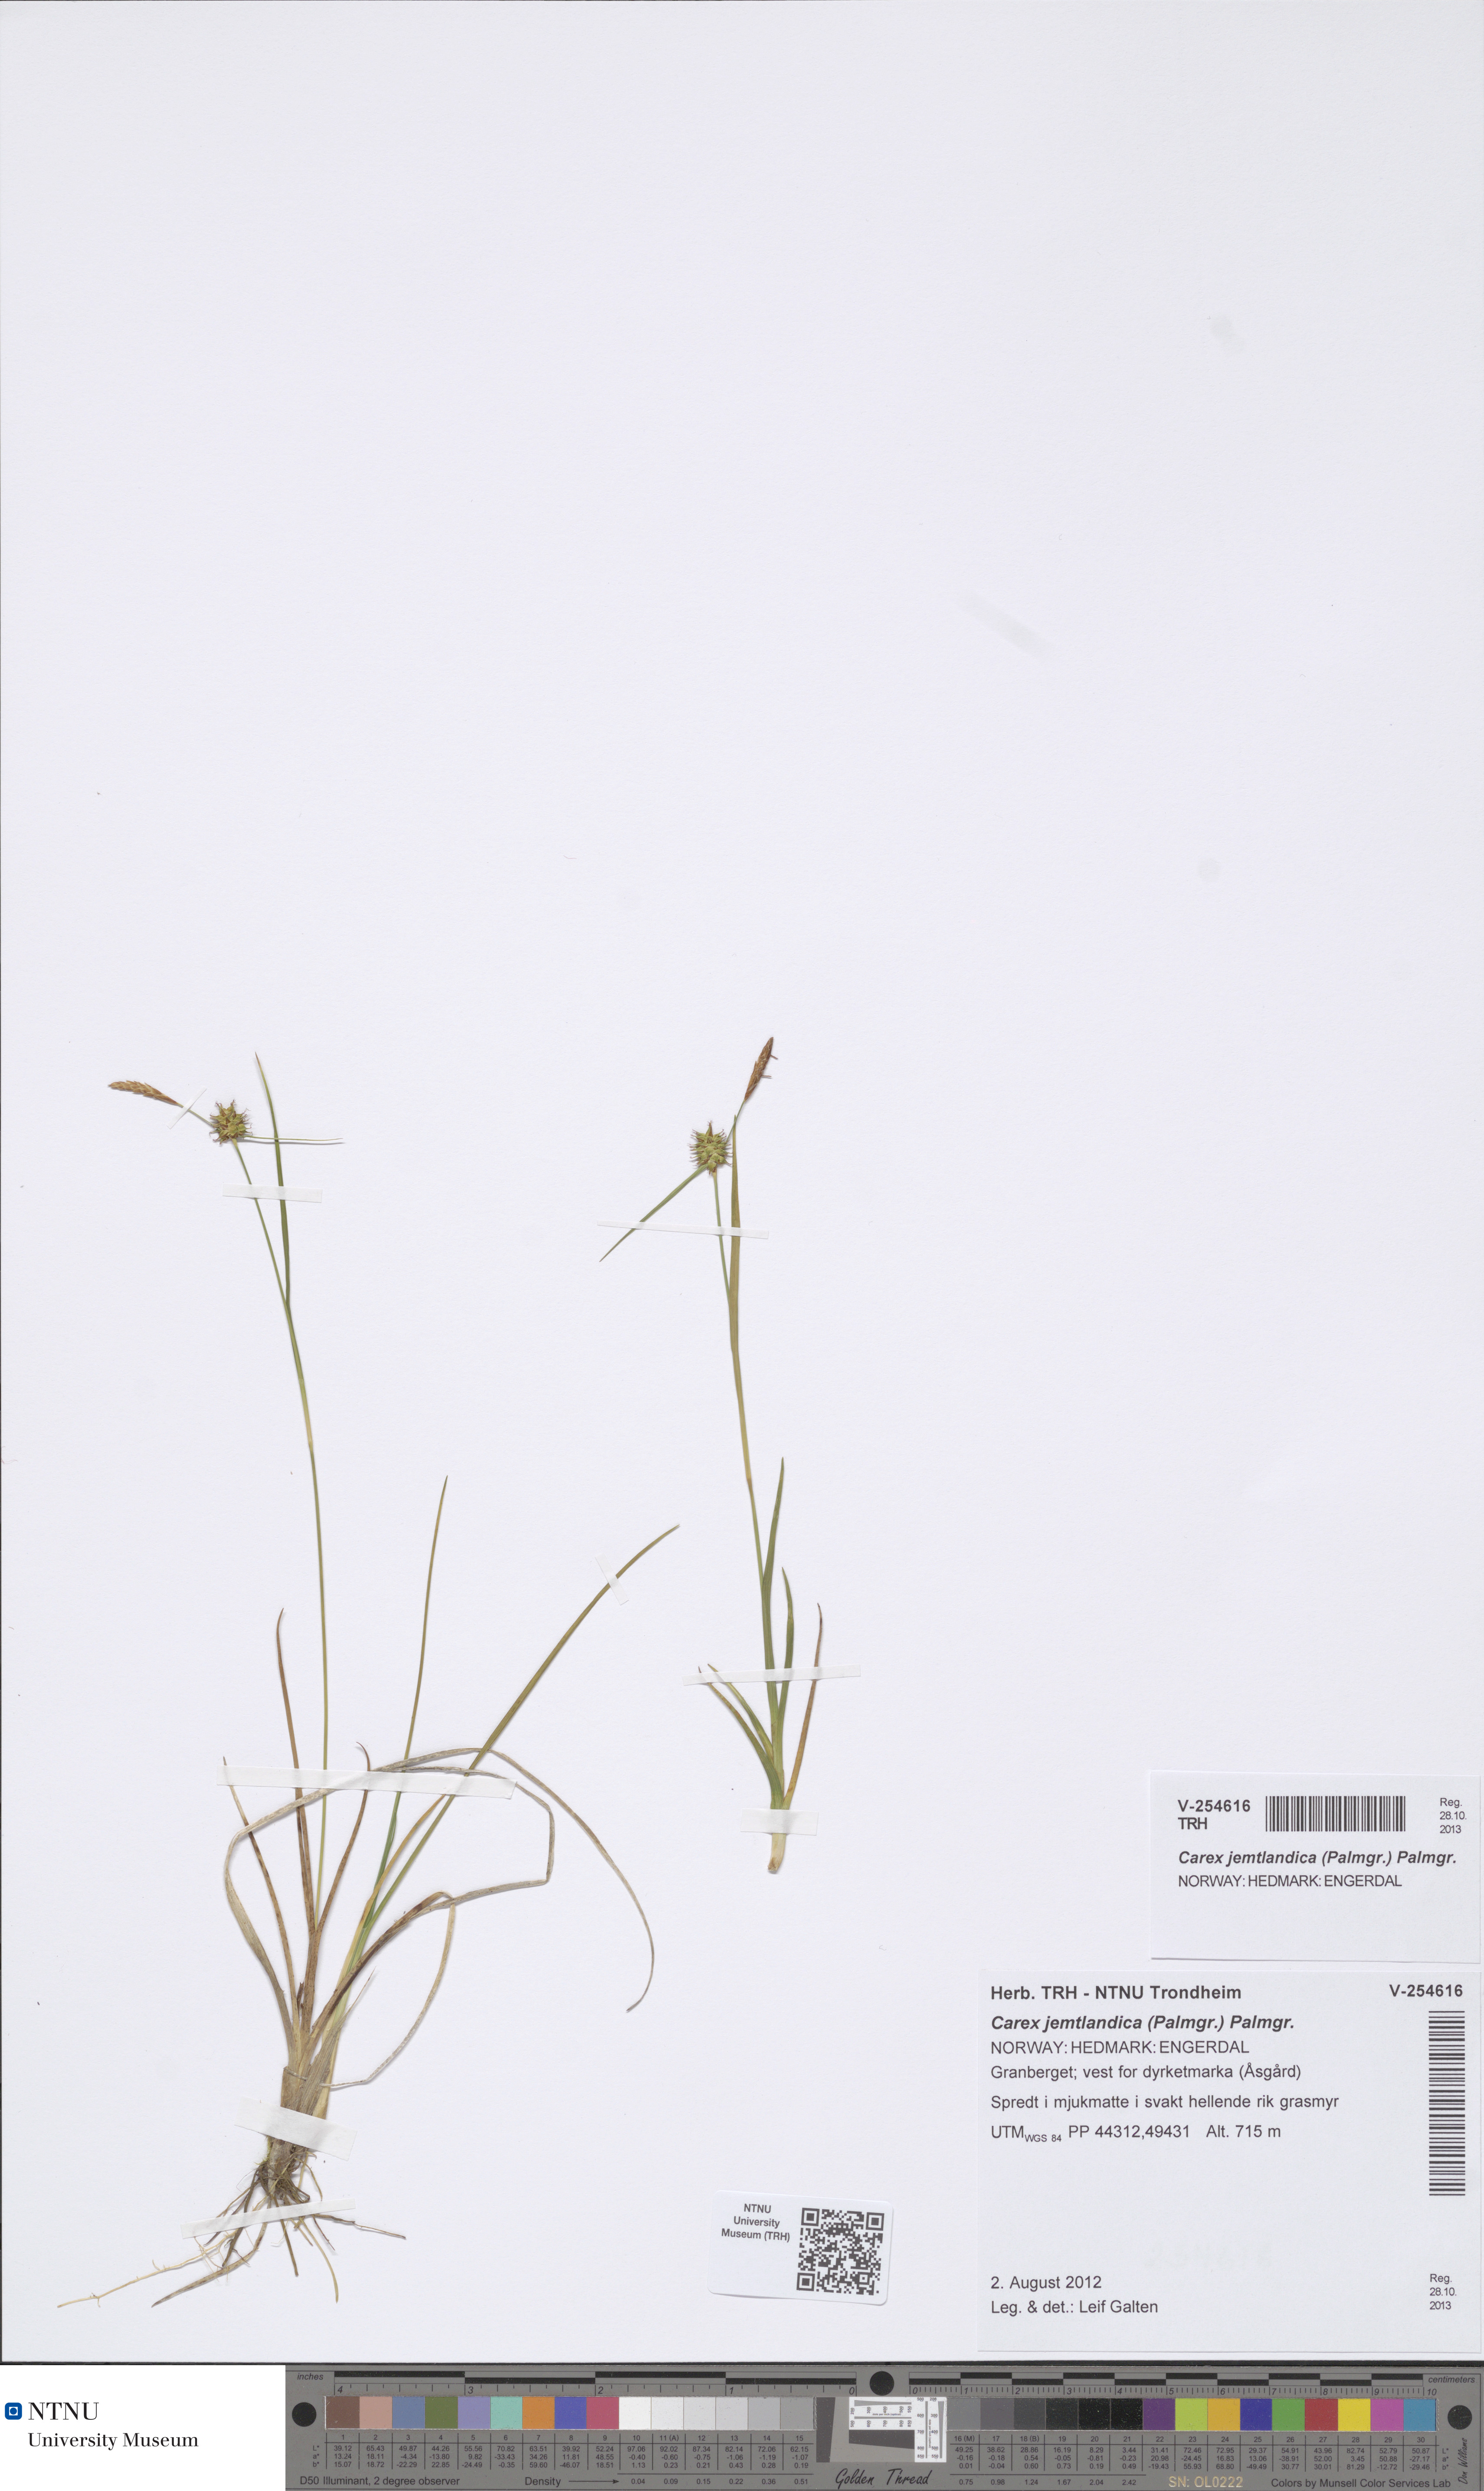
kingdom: Plantae
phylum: Tracheophyta
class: Liliopsida
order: Poales
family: Cyperaceae
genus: Carex
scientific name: Carex lepidocarpa
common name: Long-stalked yellow-sedge
